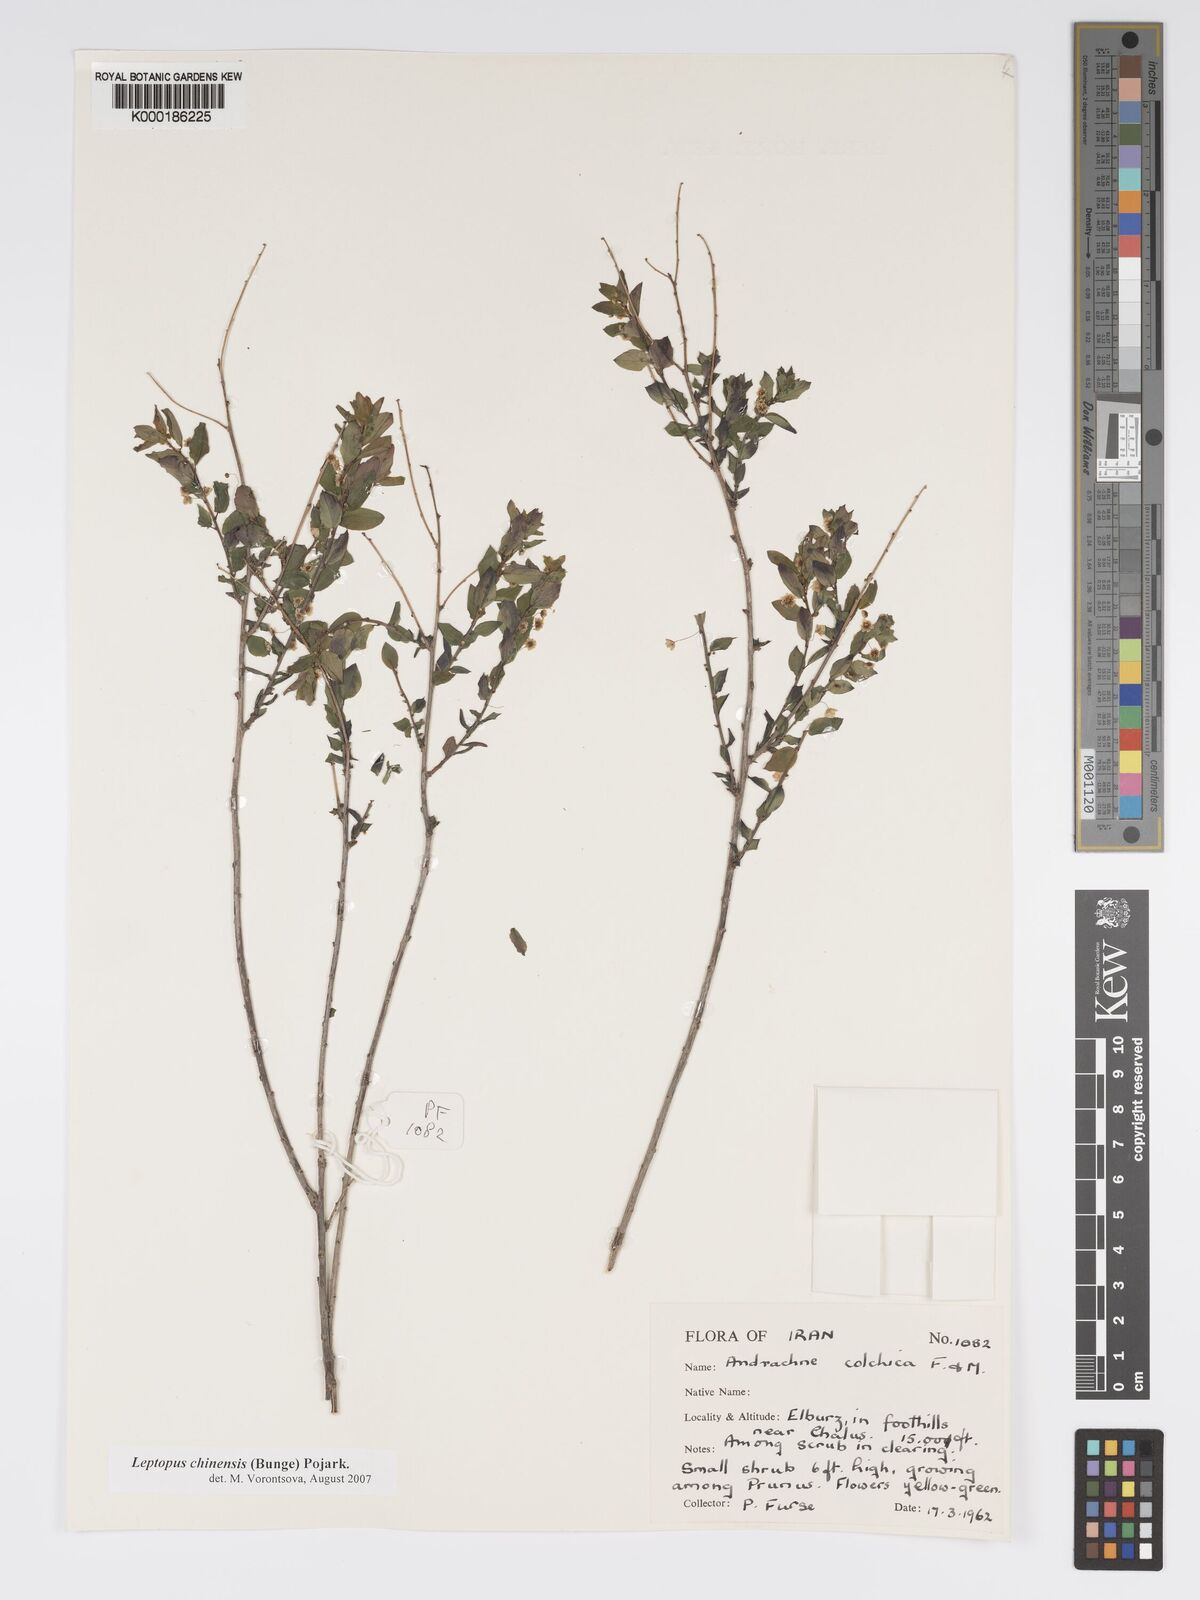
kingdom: Plantae
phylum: Tracheophyta
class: Magnoliopsida
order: Malpighiales
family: Phyllanthaceae
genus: Leptopus
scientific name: Leptopus chinensis
